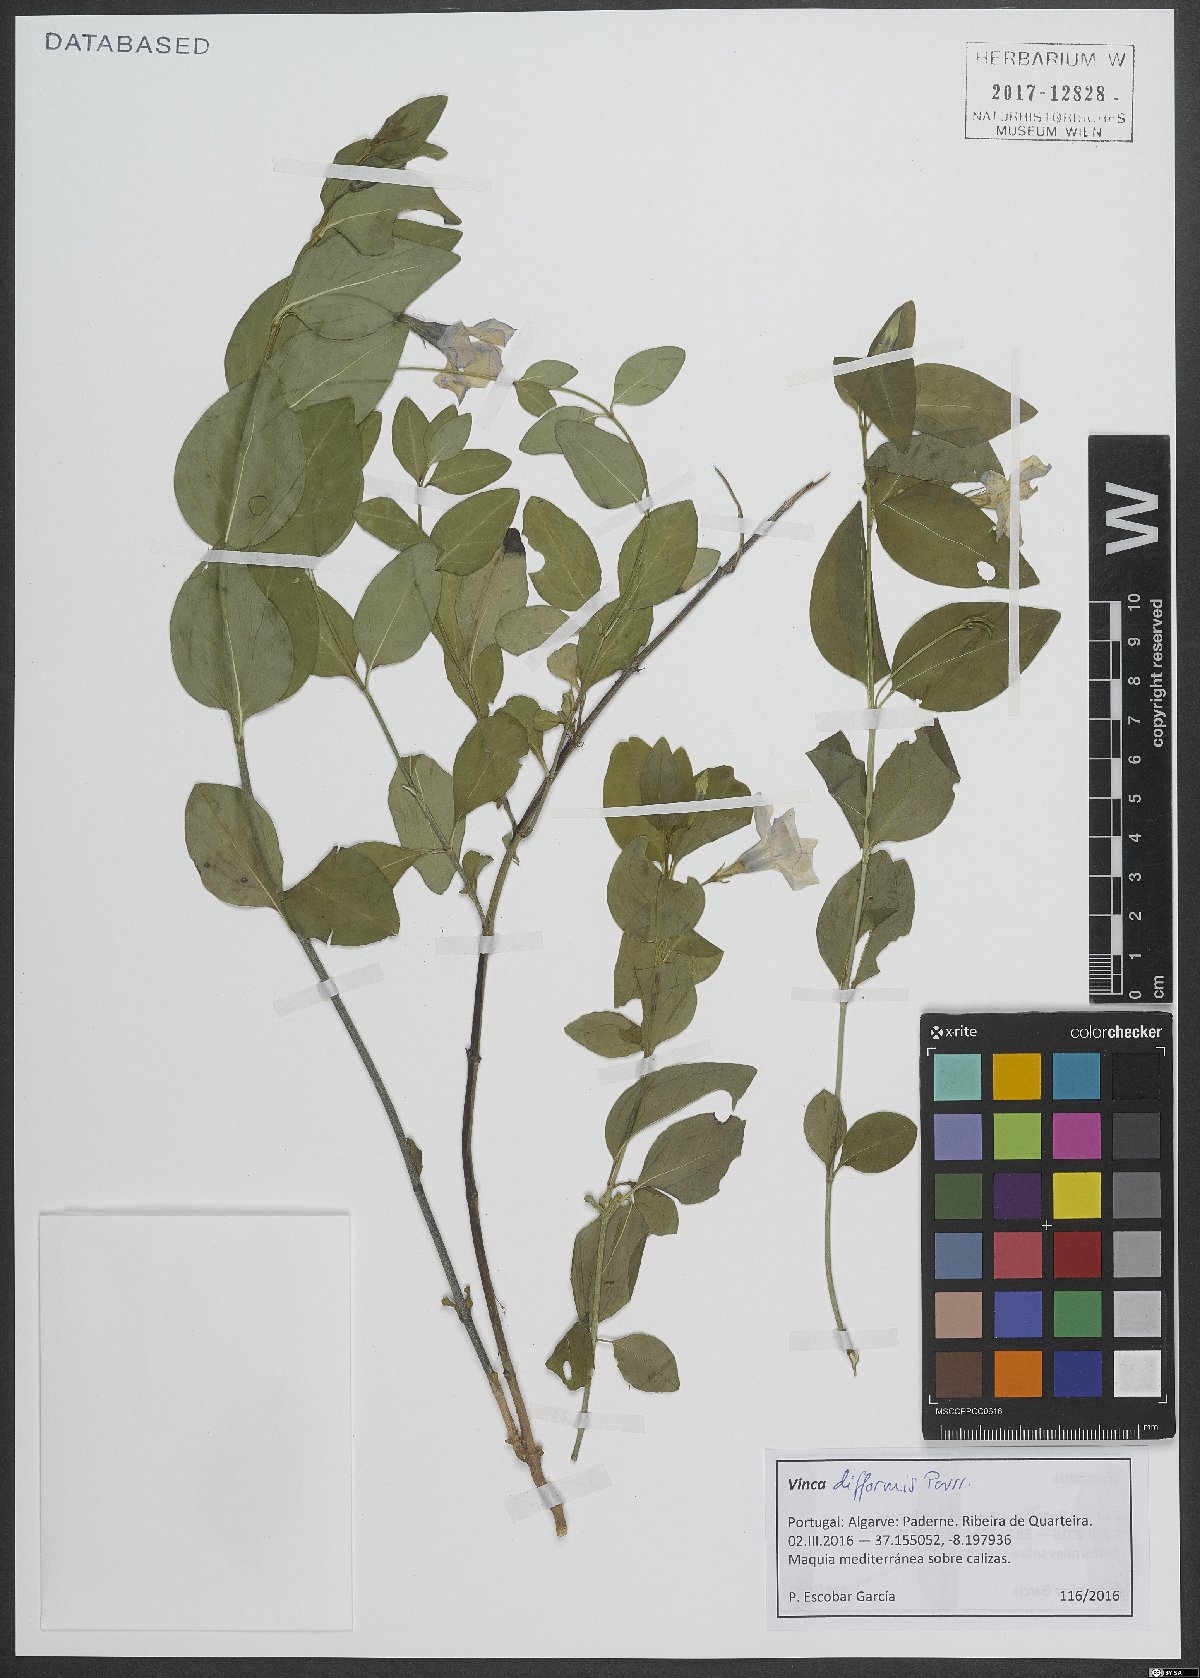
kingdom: Plantae
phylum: Tracheophyta
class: Magnoliopsida
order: Gentianales
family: Apocynaceae
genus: Vinca
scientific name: Vinca difformis
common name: Intermediate periwinkle
